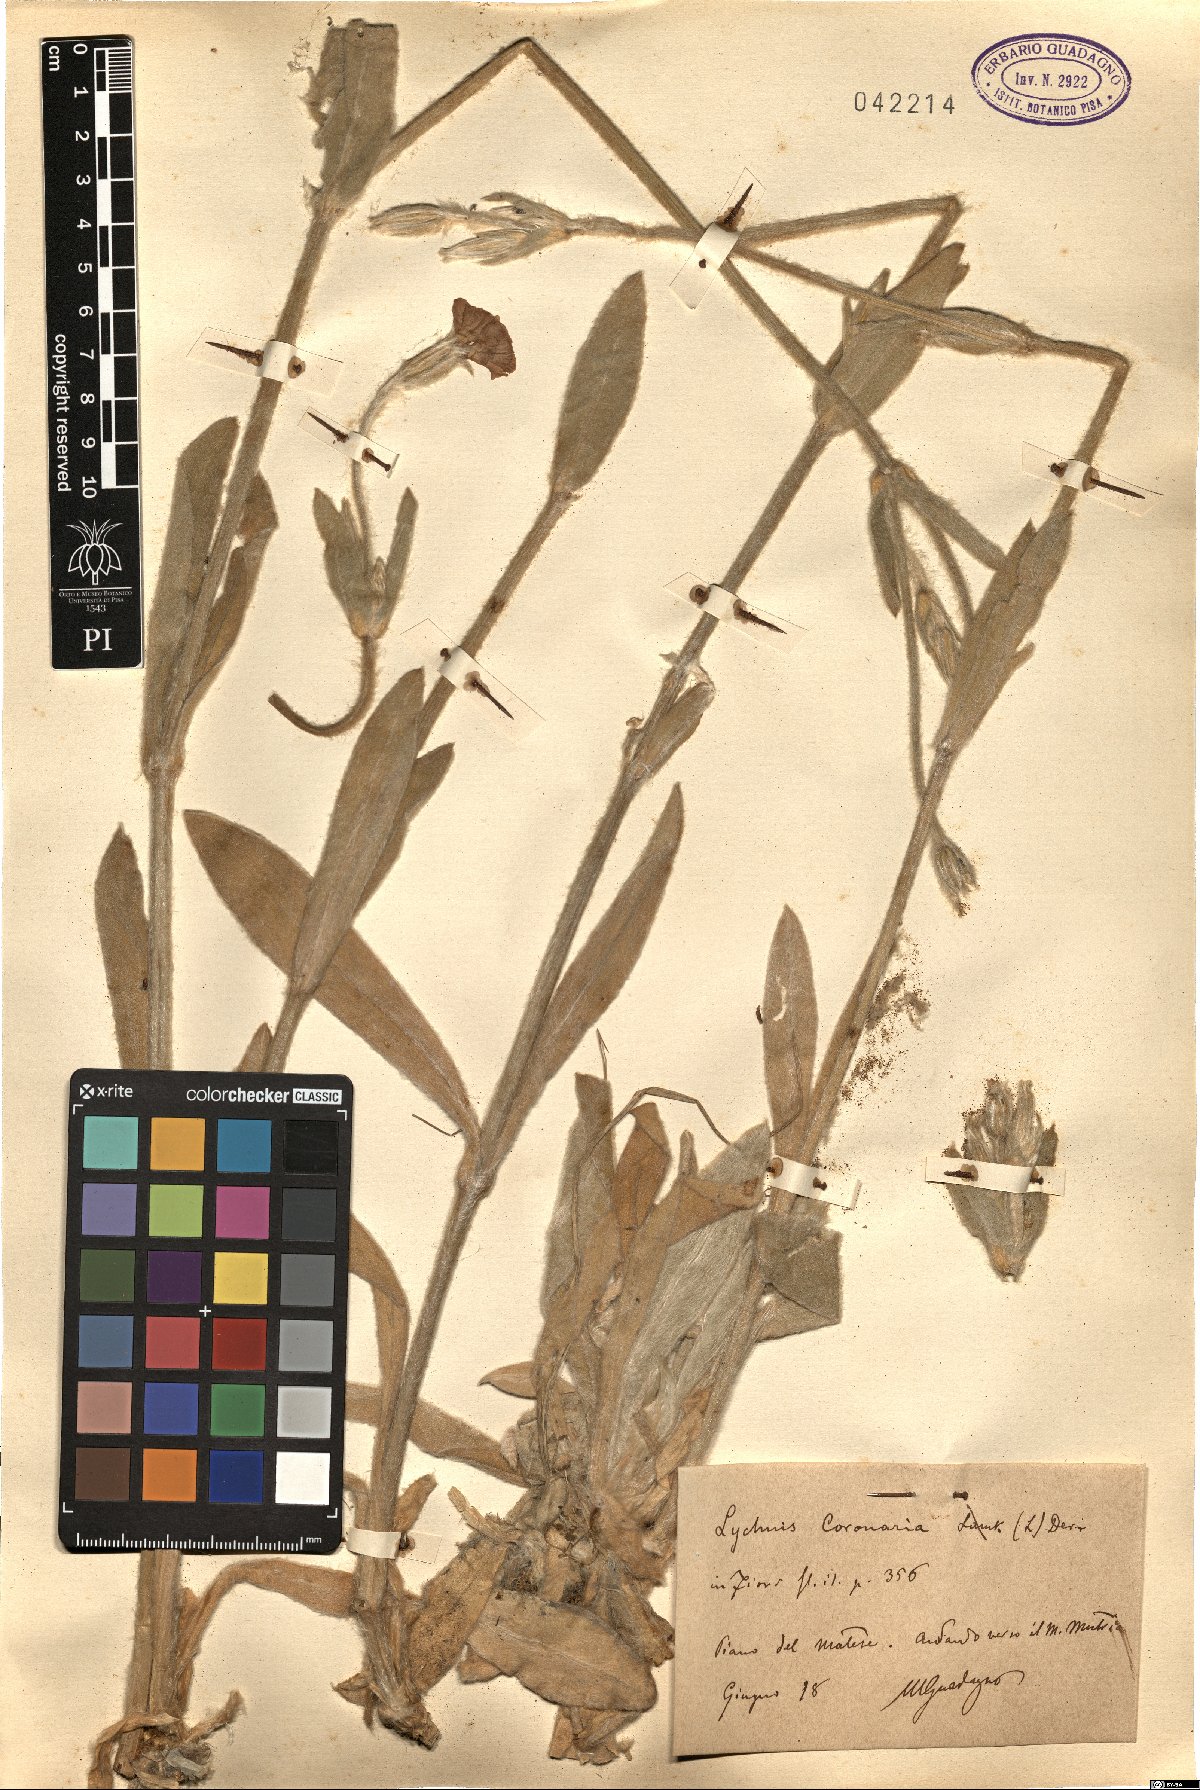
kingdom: Plantae
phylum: Tracheophyta
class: Magnoliopsida
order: Caryophyllales
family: Caryophyllaceae
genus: Silene
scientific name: Silene coronaria
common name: Rose campion
